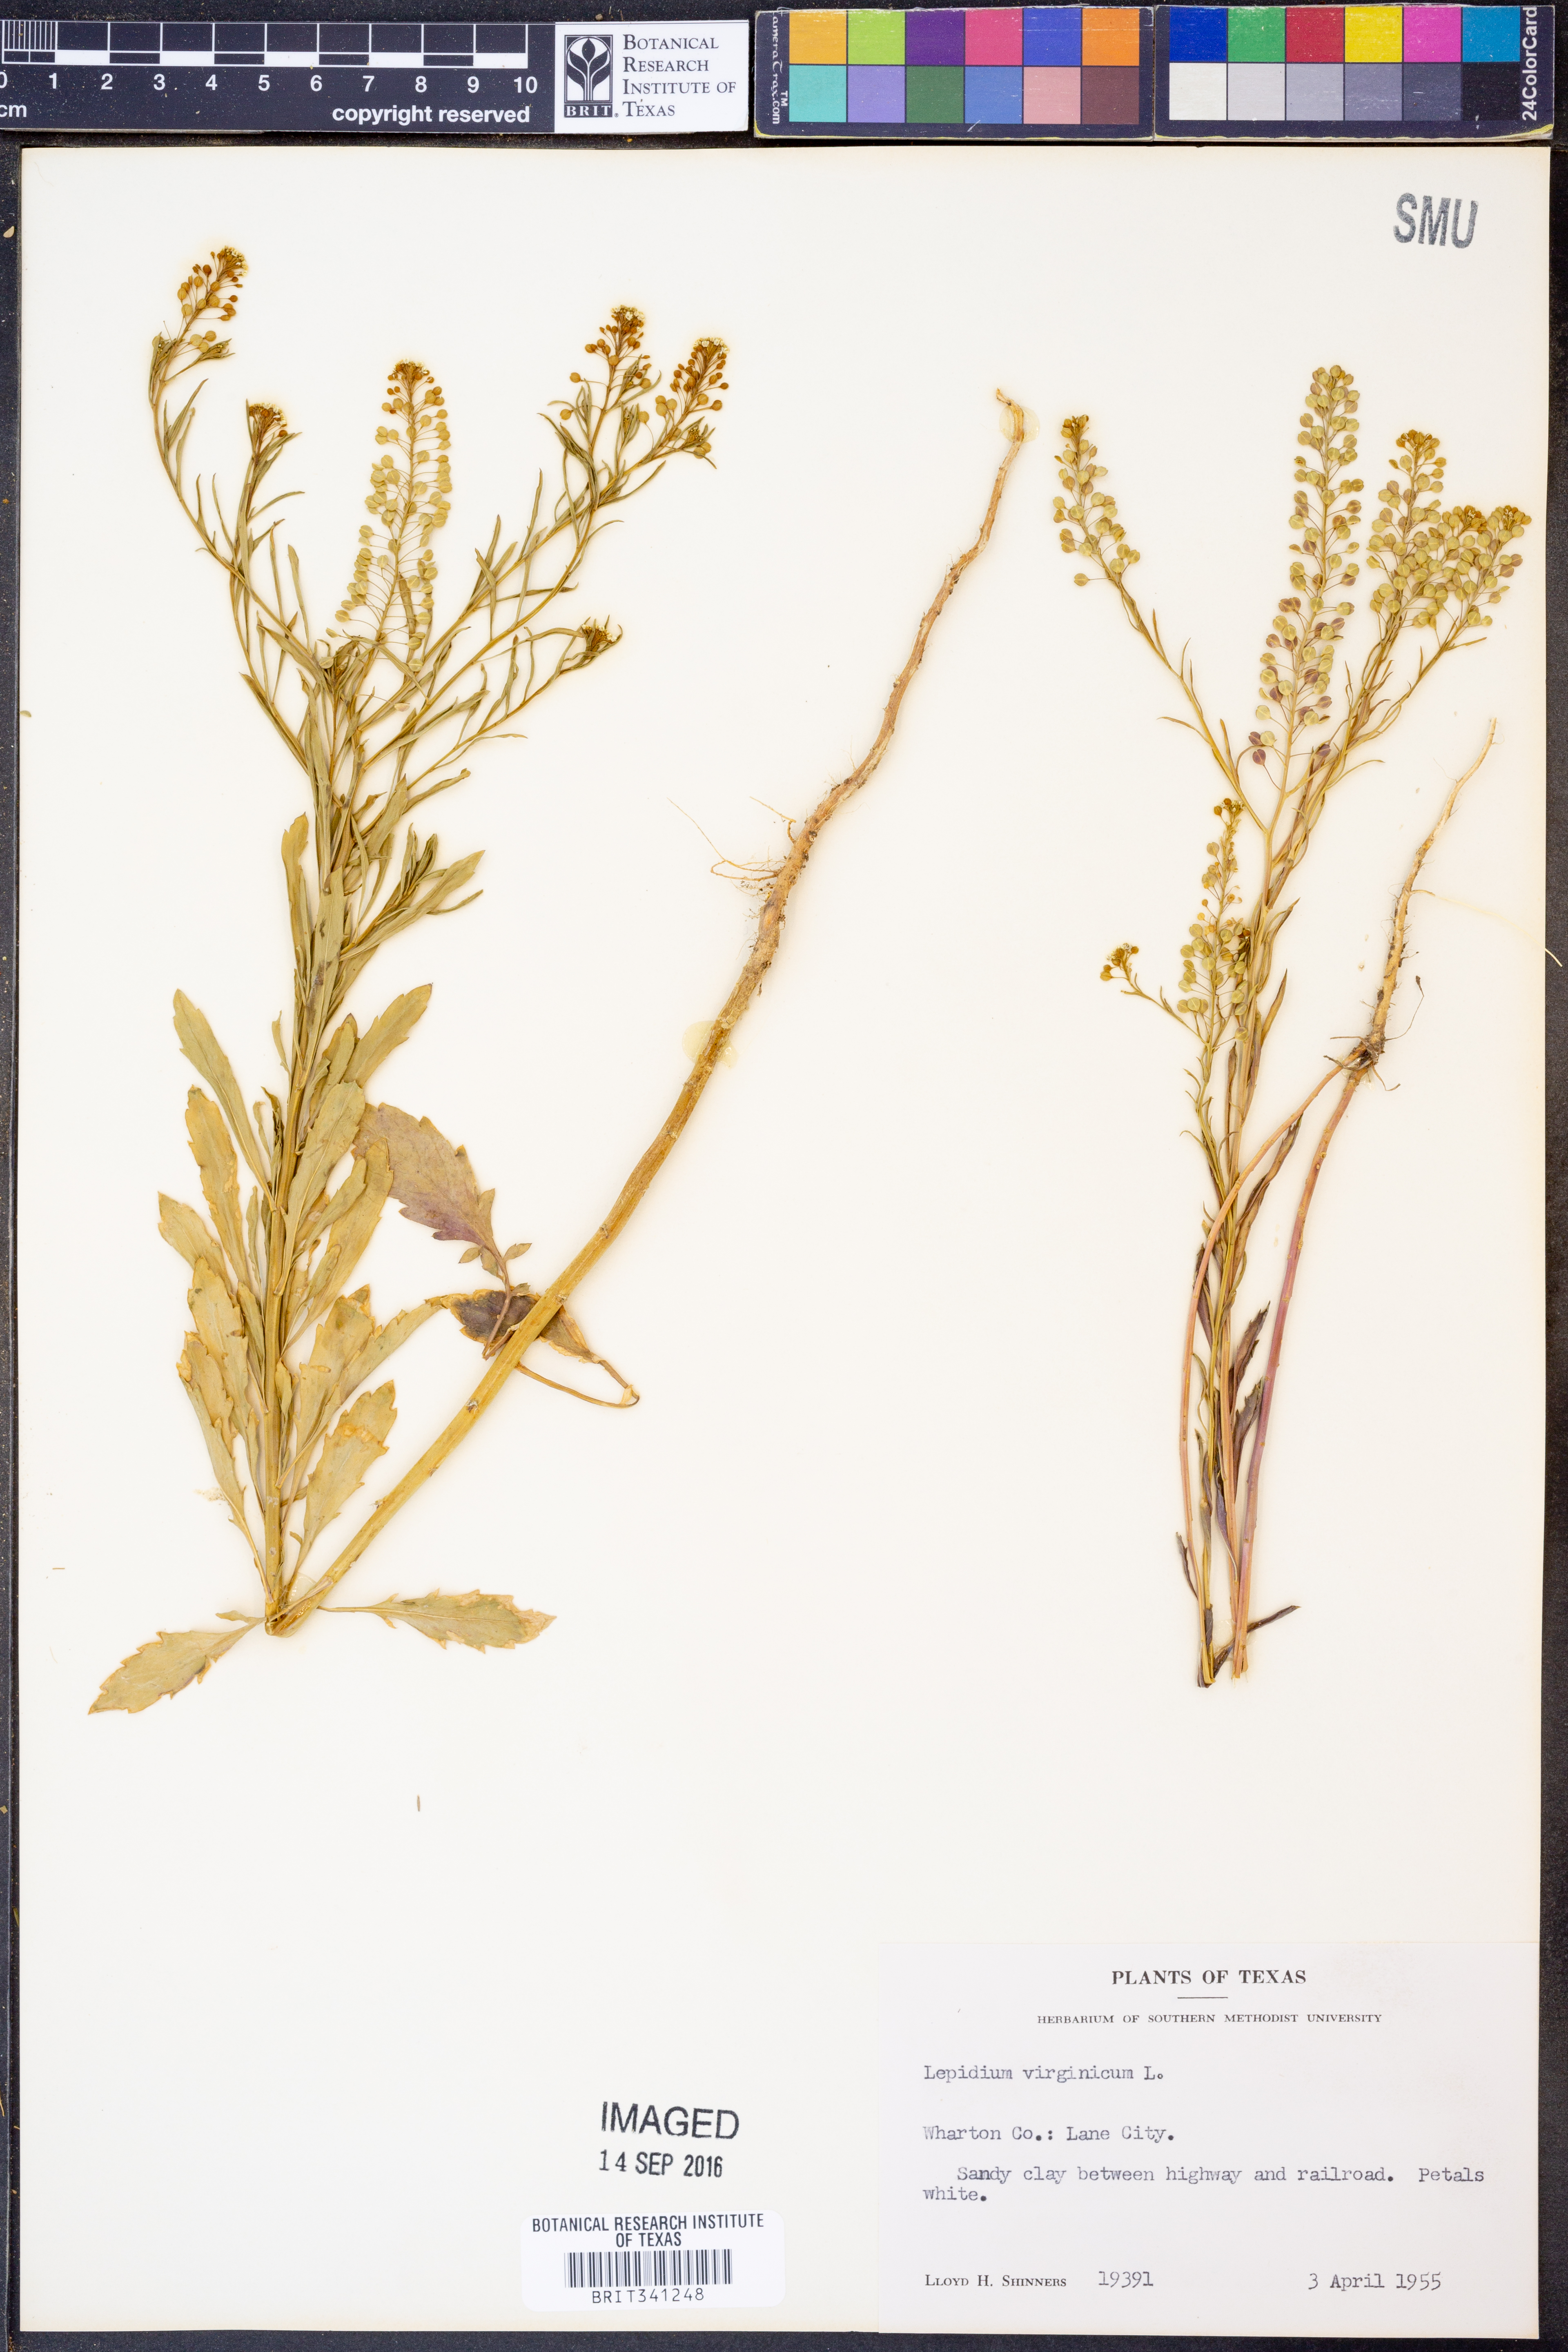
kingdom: Plantae
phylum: Tracheophyta
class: Magnoliopsida
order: Brassicales
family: Brassicaceae
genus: Lepidium
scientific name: Lepidium virginicum
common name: Least pepperwort
